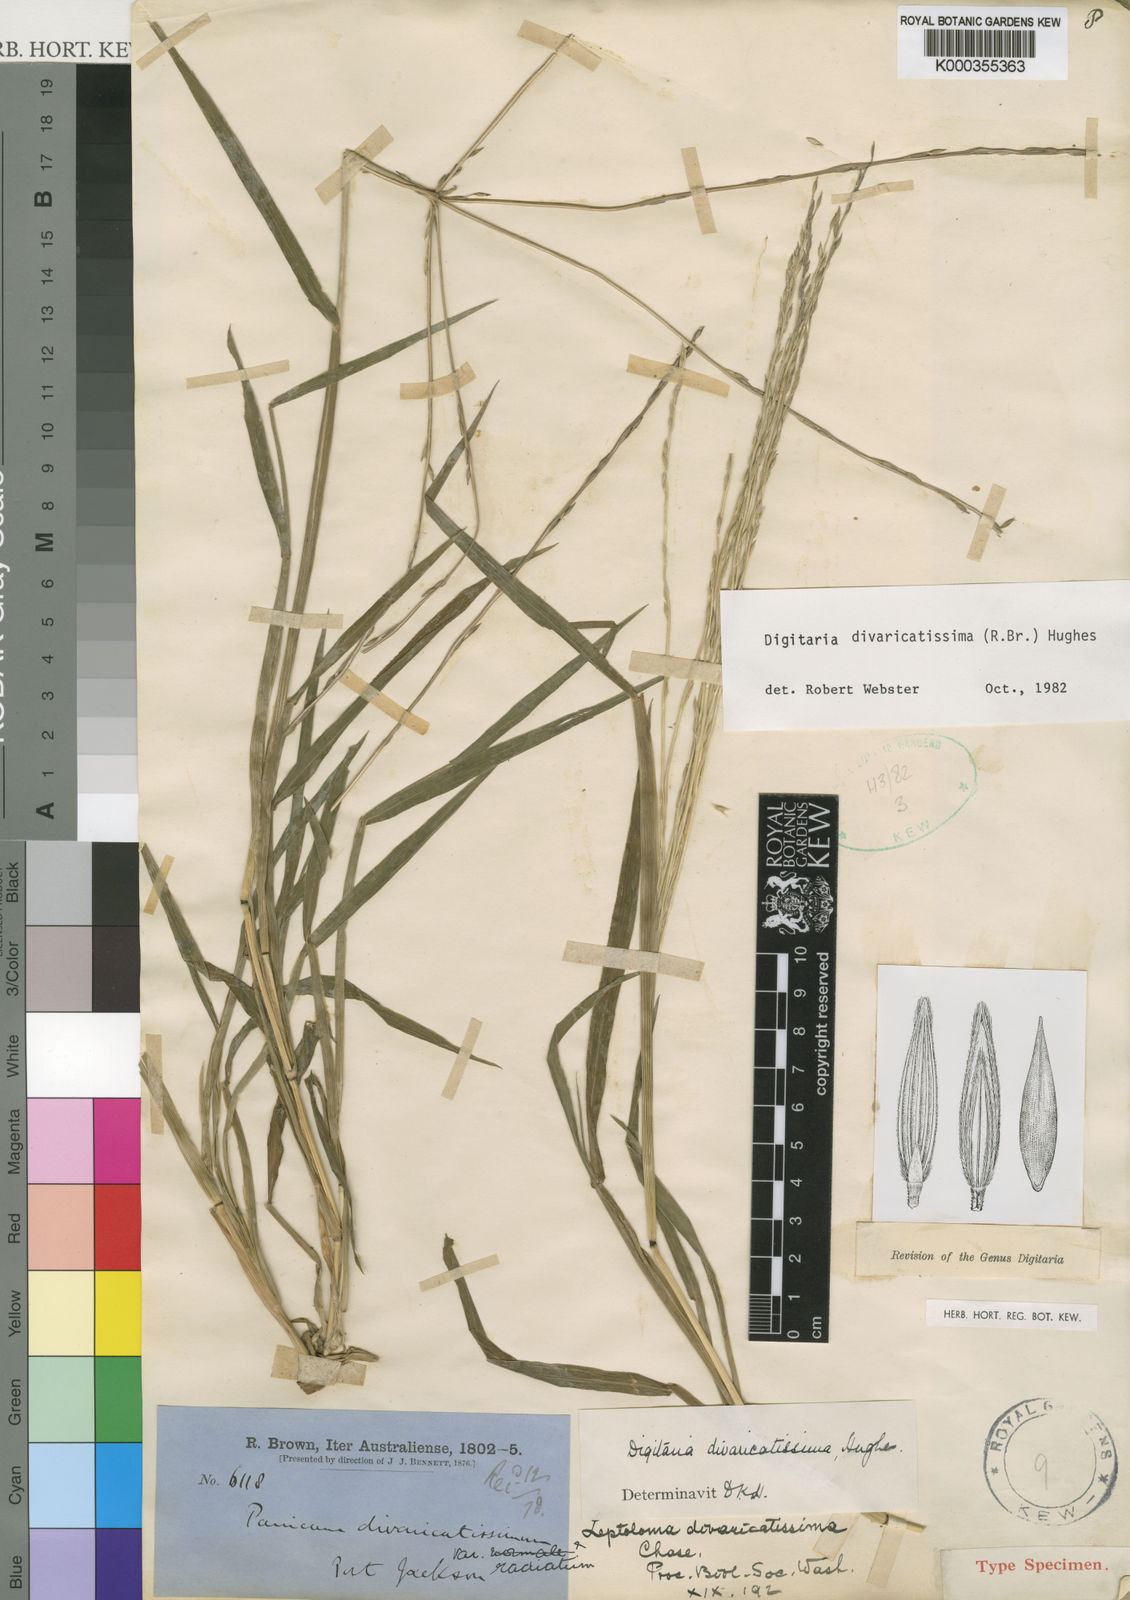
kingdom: Plantae
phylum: Tracheophyta
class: Liliopsida
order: Poales
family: Poaceae
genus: Digitaria
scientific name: Digitaria divaricatissima
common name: Crabgrass
